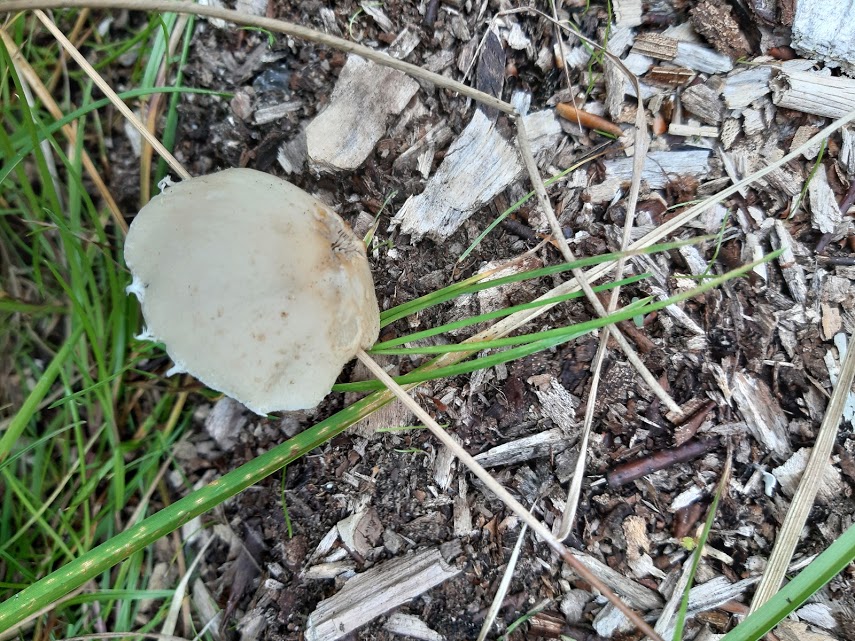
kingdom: Fungi
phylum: Basidiomycota
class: Agaricomycetes
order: Agaricales
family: Psathyrellaceae
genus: Candolleomyces
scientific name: Candolleomyces candolleanus
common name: Candolles mørkhat
